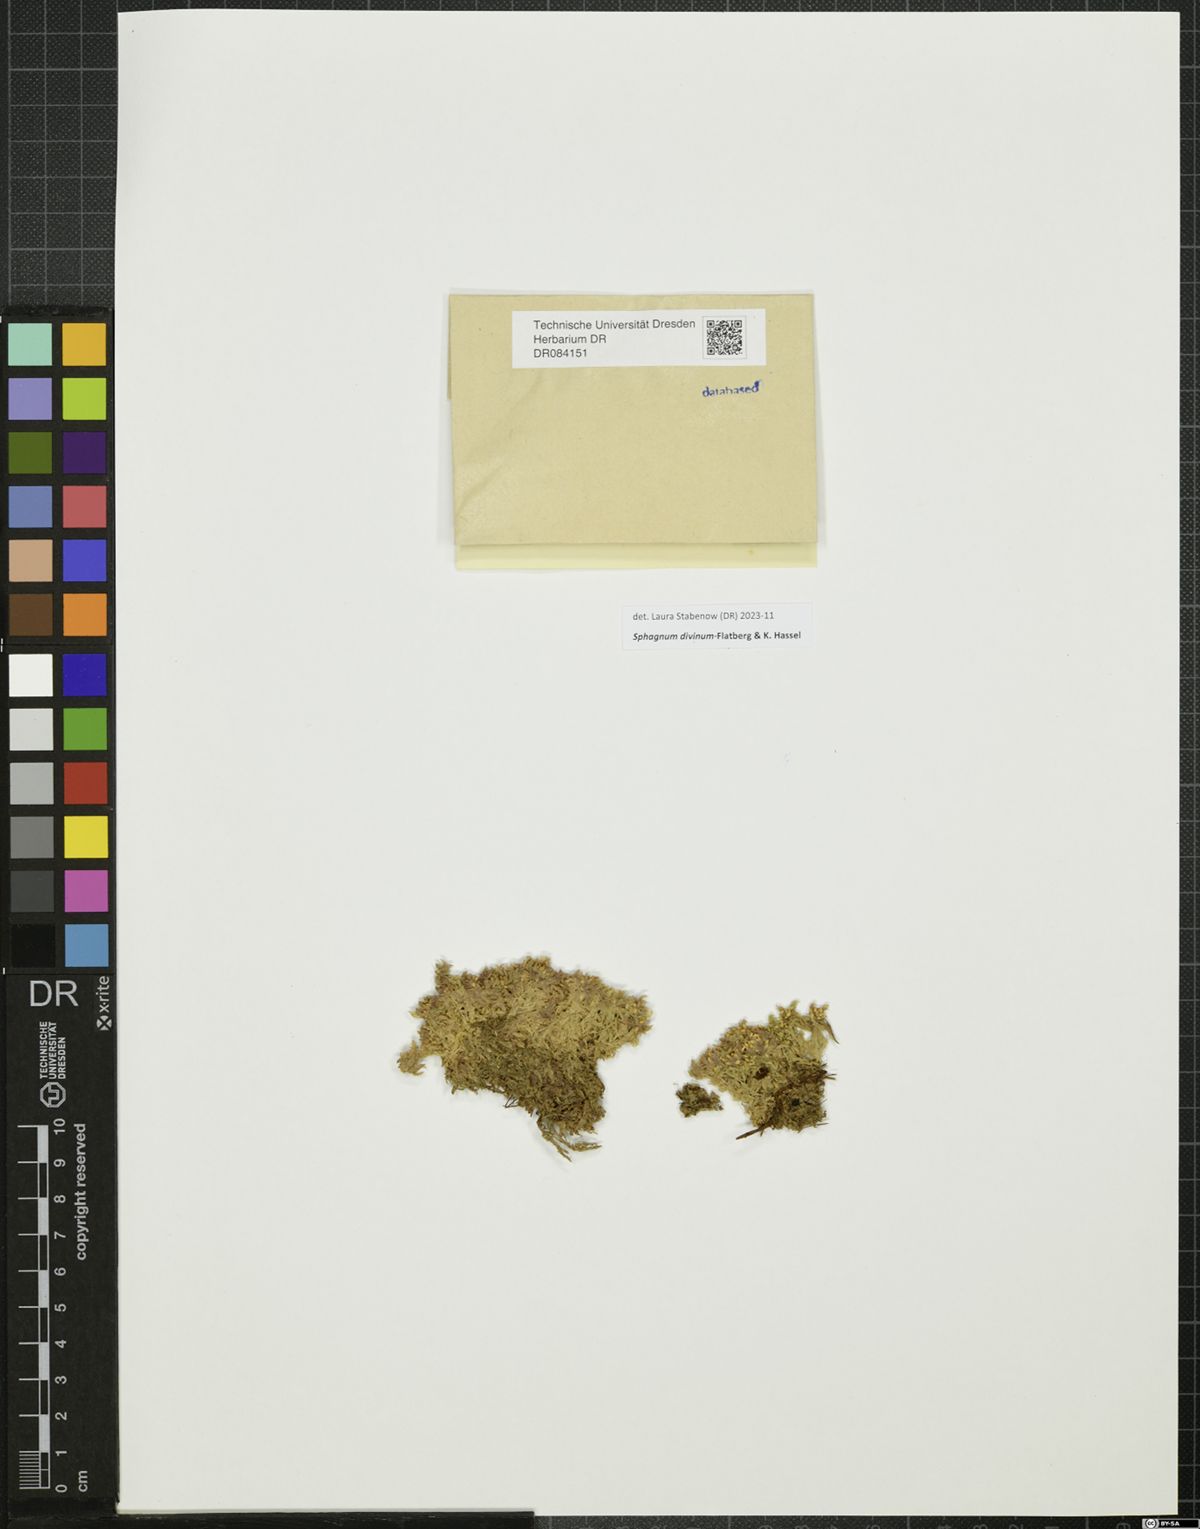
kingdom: Plantae
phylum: Bryophyta
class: Sphagnopsida
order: Sphagnales
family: Sphagnaceae
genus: Sphagnum
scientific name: Sphagnum divinum
